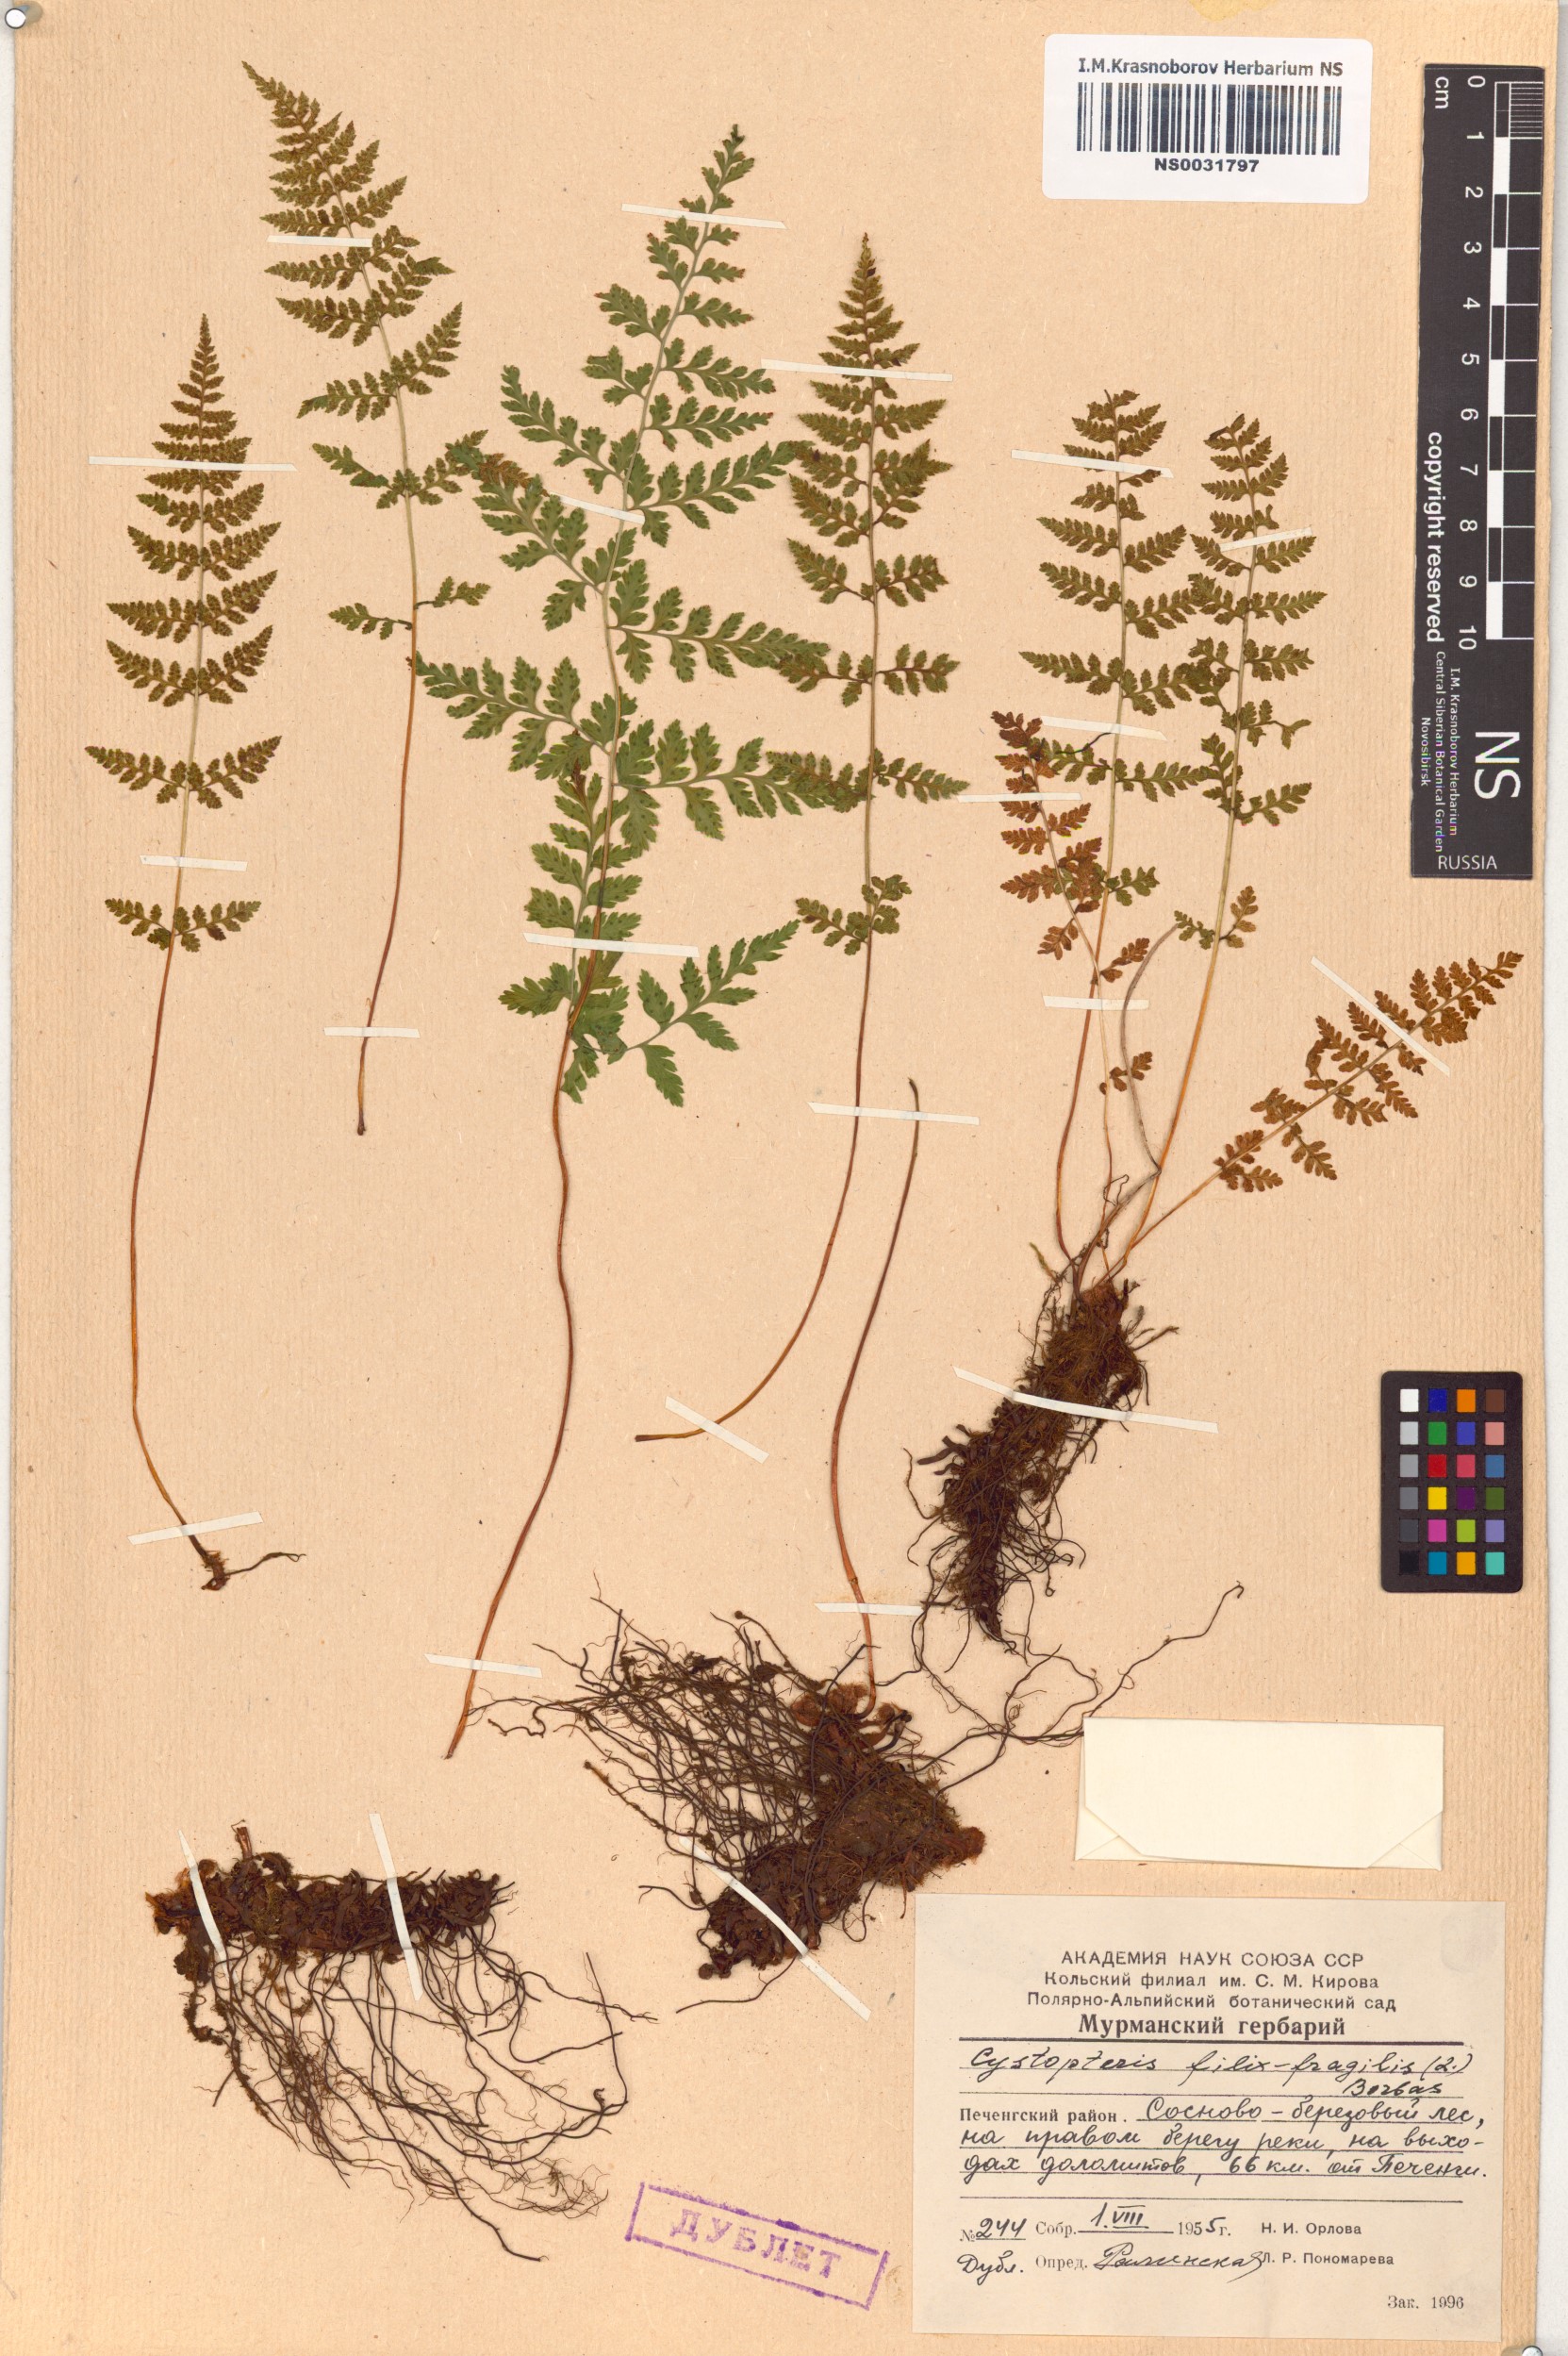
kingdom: Plantae
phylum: Tracheophyta
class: Polypodiopsida
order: Polypodiales
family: Cystopteridaceae
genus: Cystopteris
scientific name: Cystopteris fragilis
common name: Brittle bladder fern
